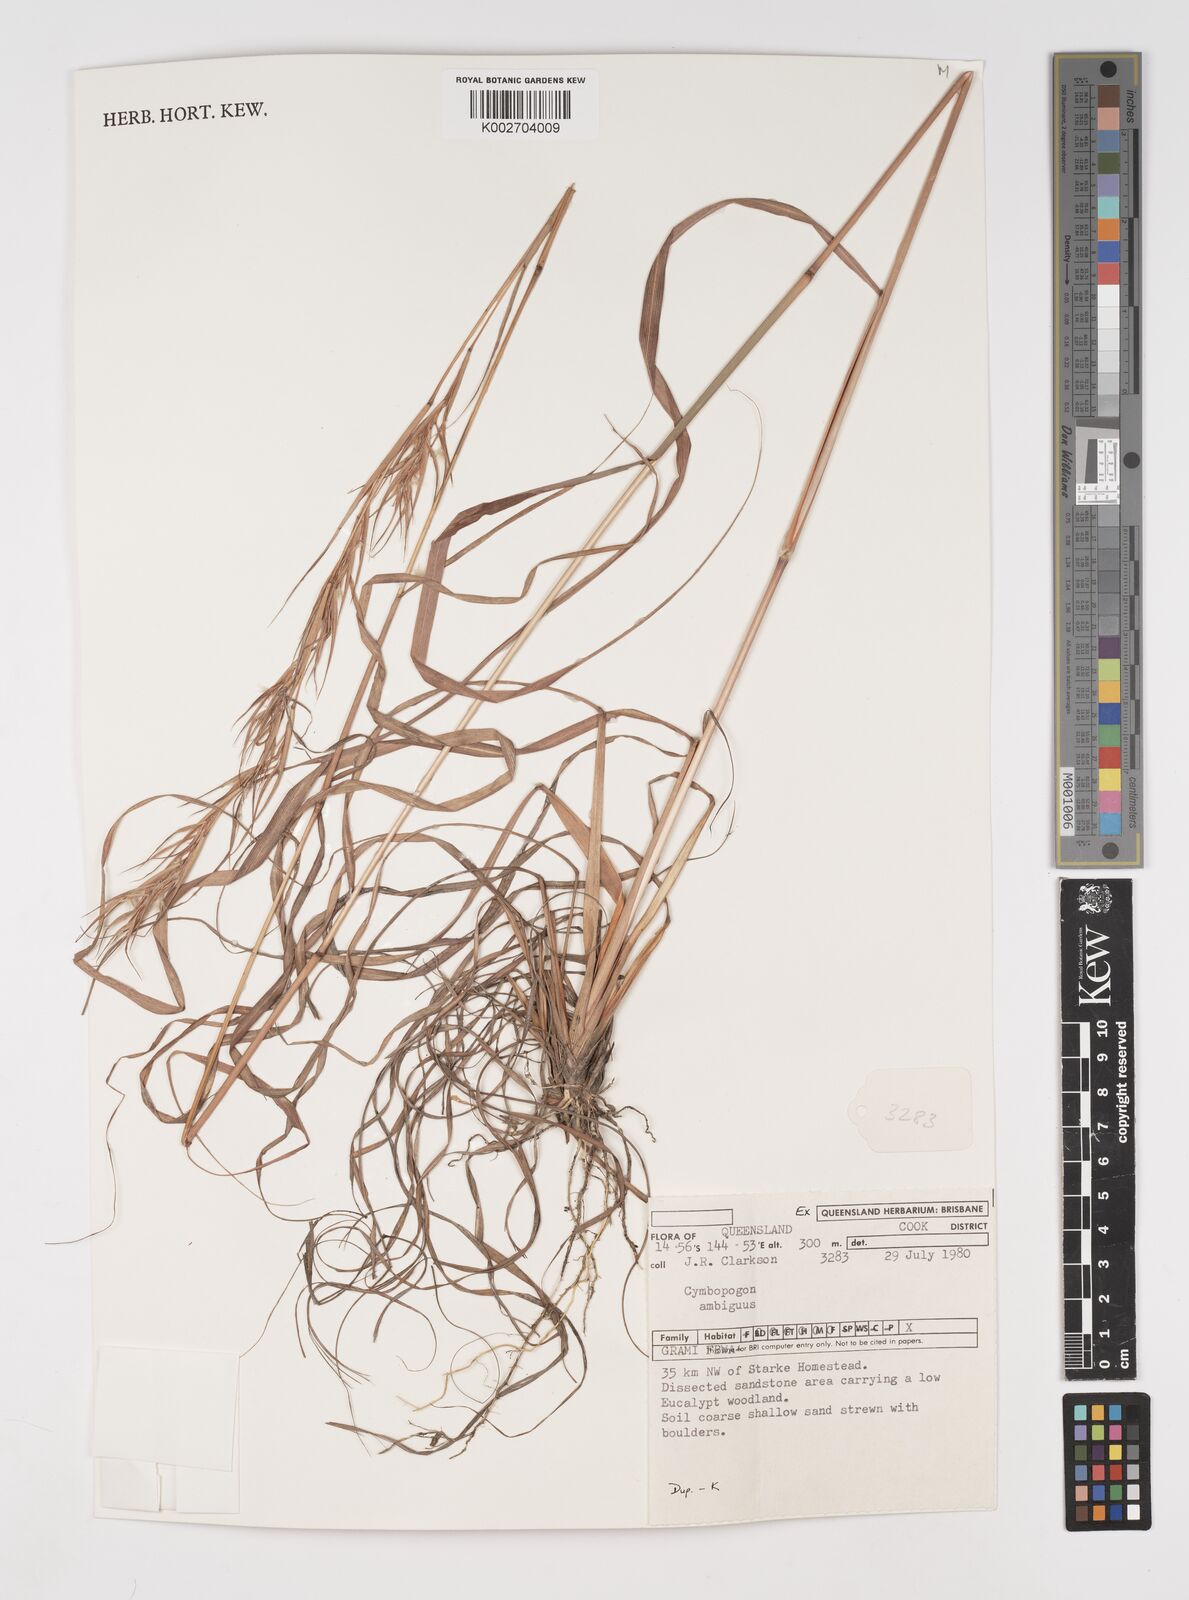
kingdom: Plantae
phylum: Tracheophyta
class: Liliopsida
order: Poales
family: Poaceae
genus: Cymbopogon
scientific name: Cymbopogon ambiguus
